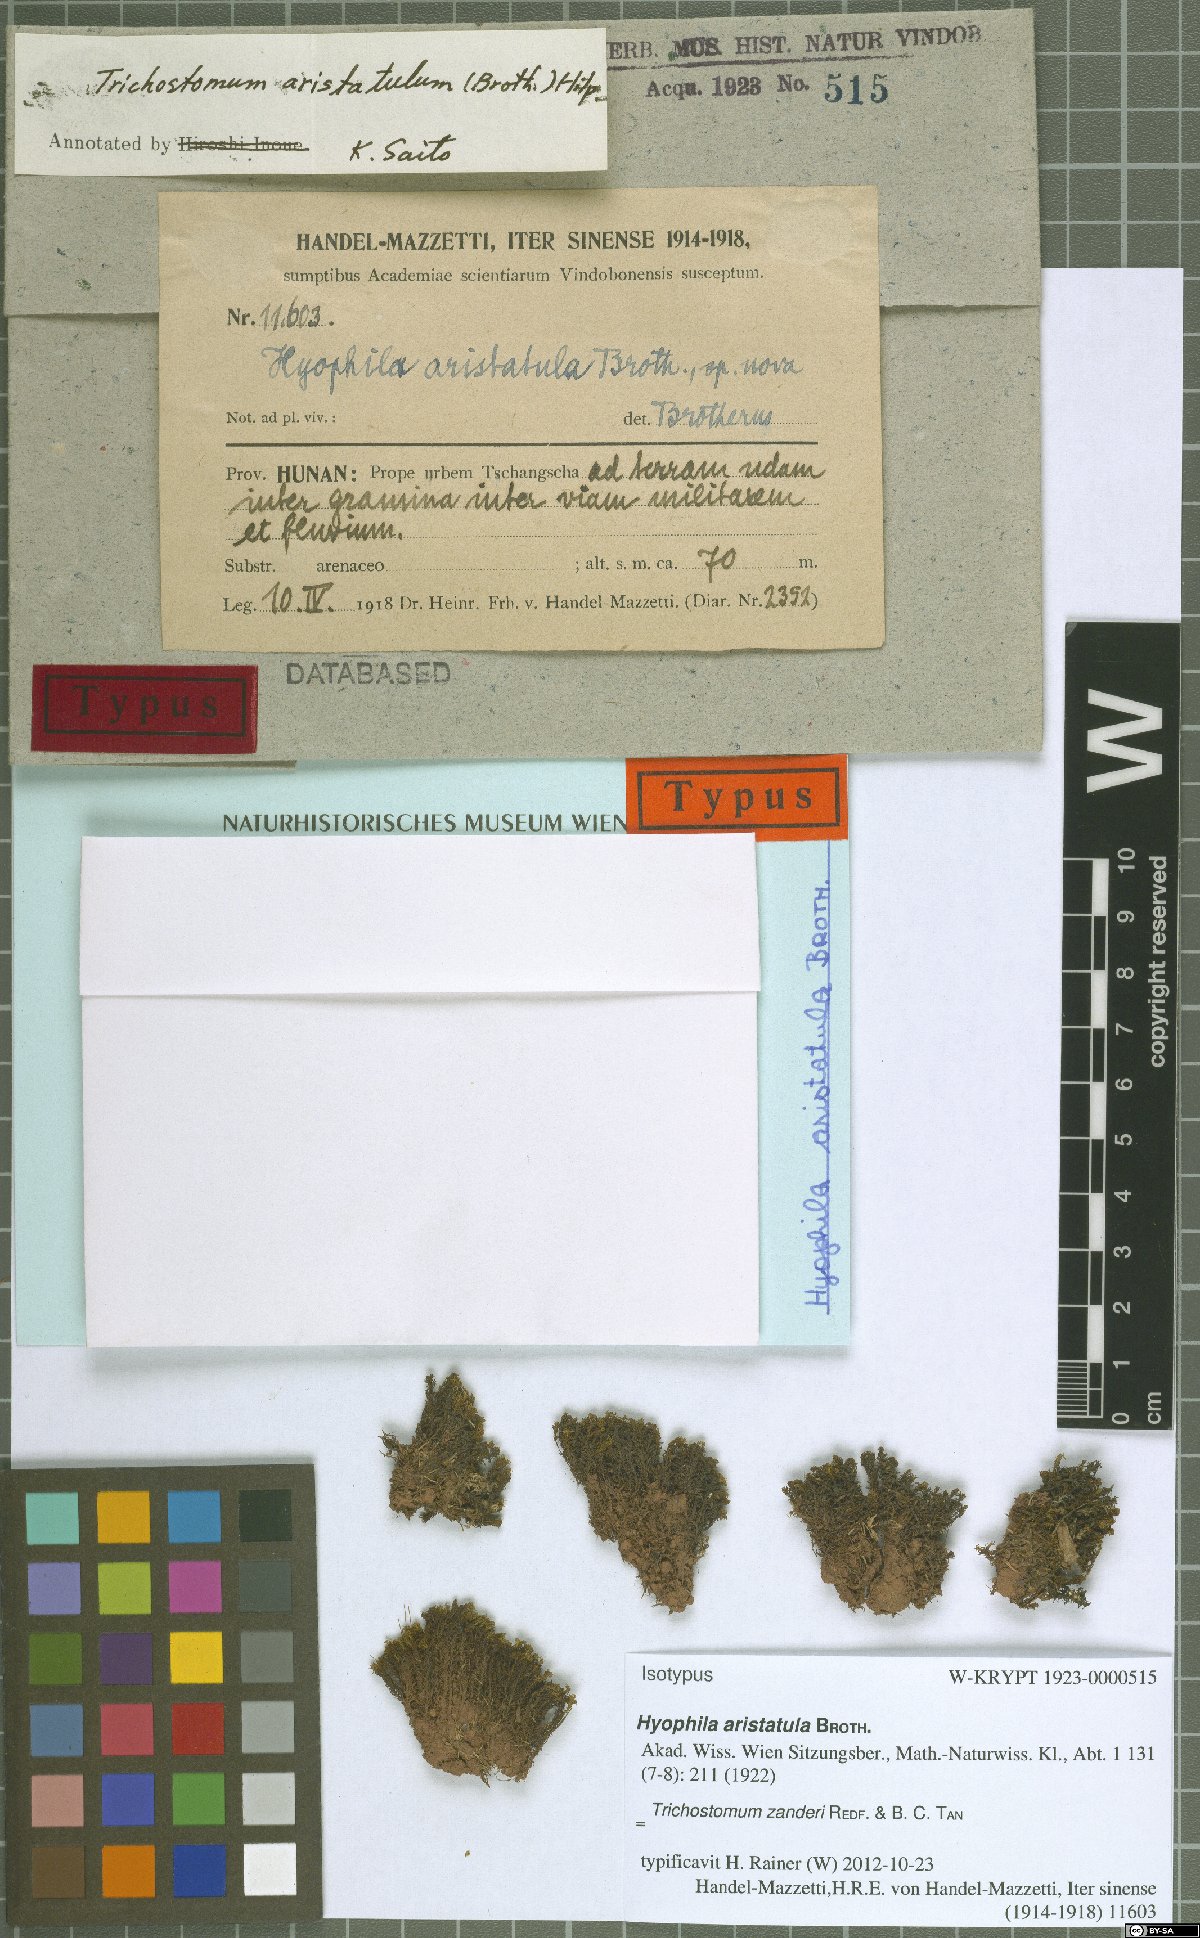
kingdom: Plantae
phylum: Bryophyta
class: Bryopsida
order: Pottiales
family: Pottiaceae
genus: Trichostomum
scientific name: Trichostomum zanderi
